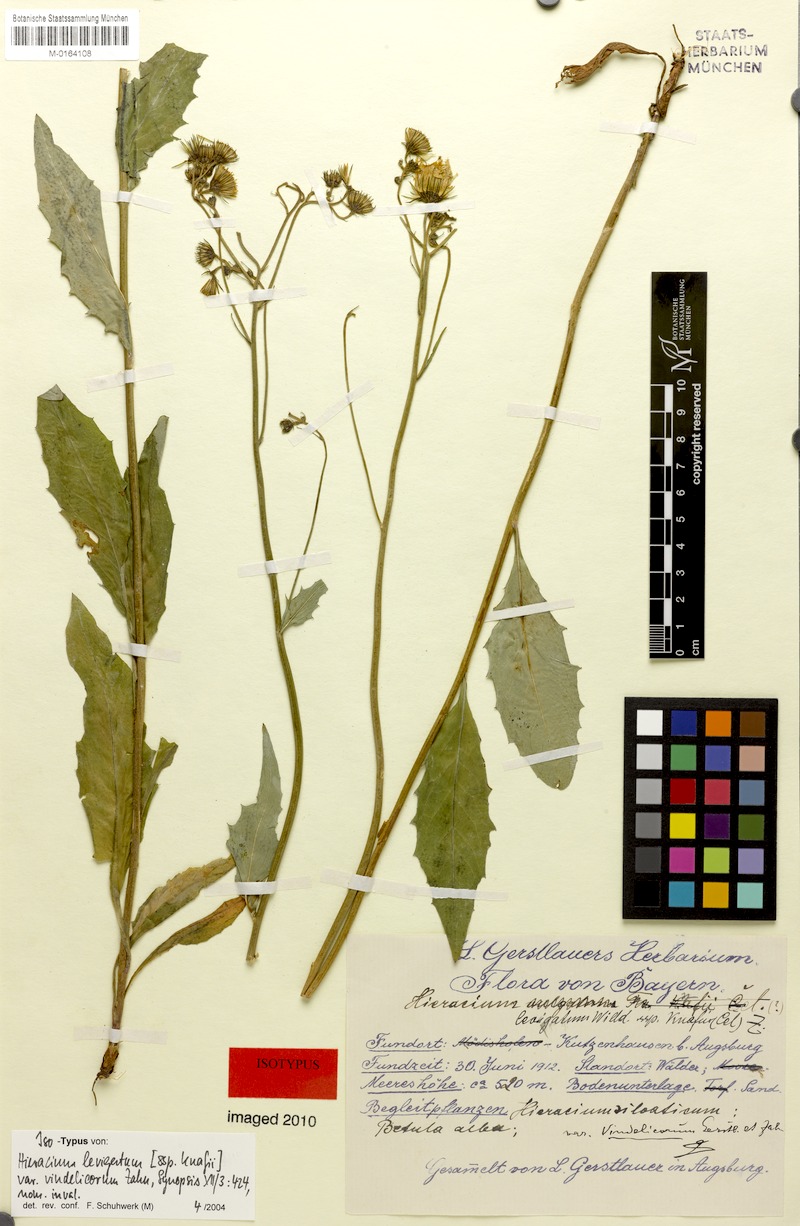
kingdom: Plantae
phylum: Tracheophyta
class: Magnoliopsida
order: Asterales
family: Asteraceae
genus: Hieracium
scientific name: Hieracium laevigatum
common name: Smooth hawkweed
